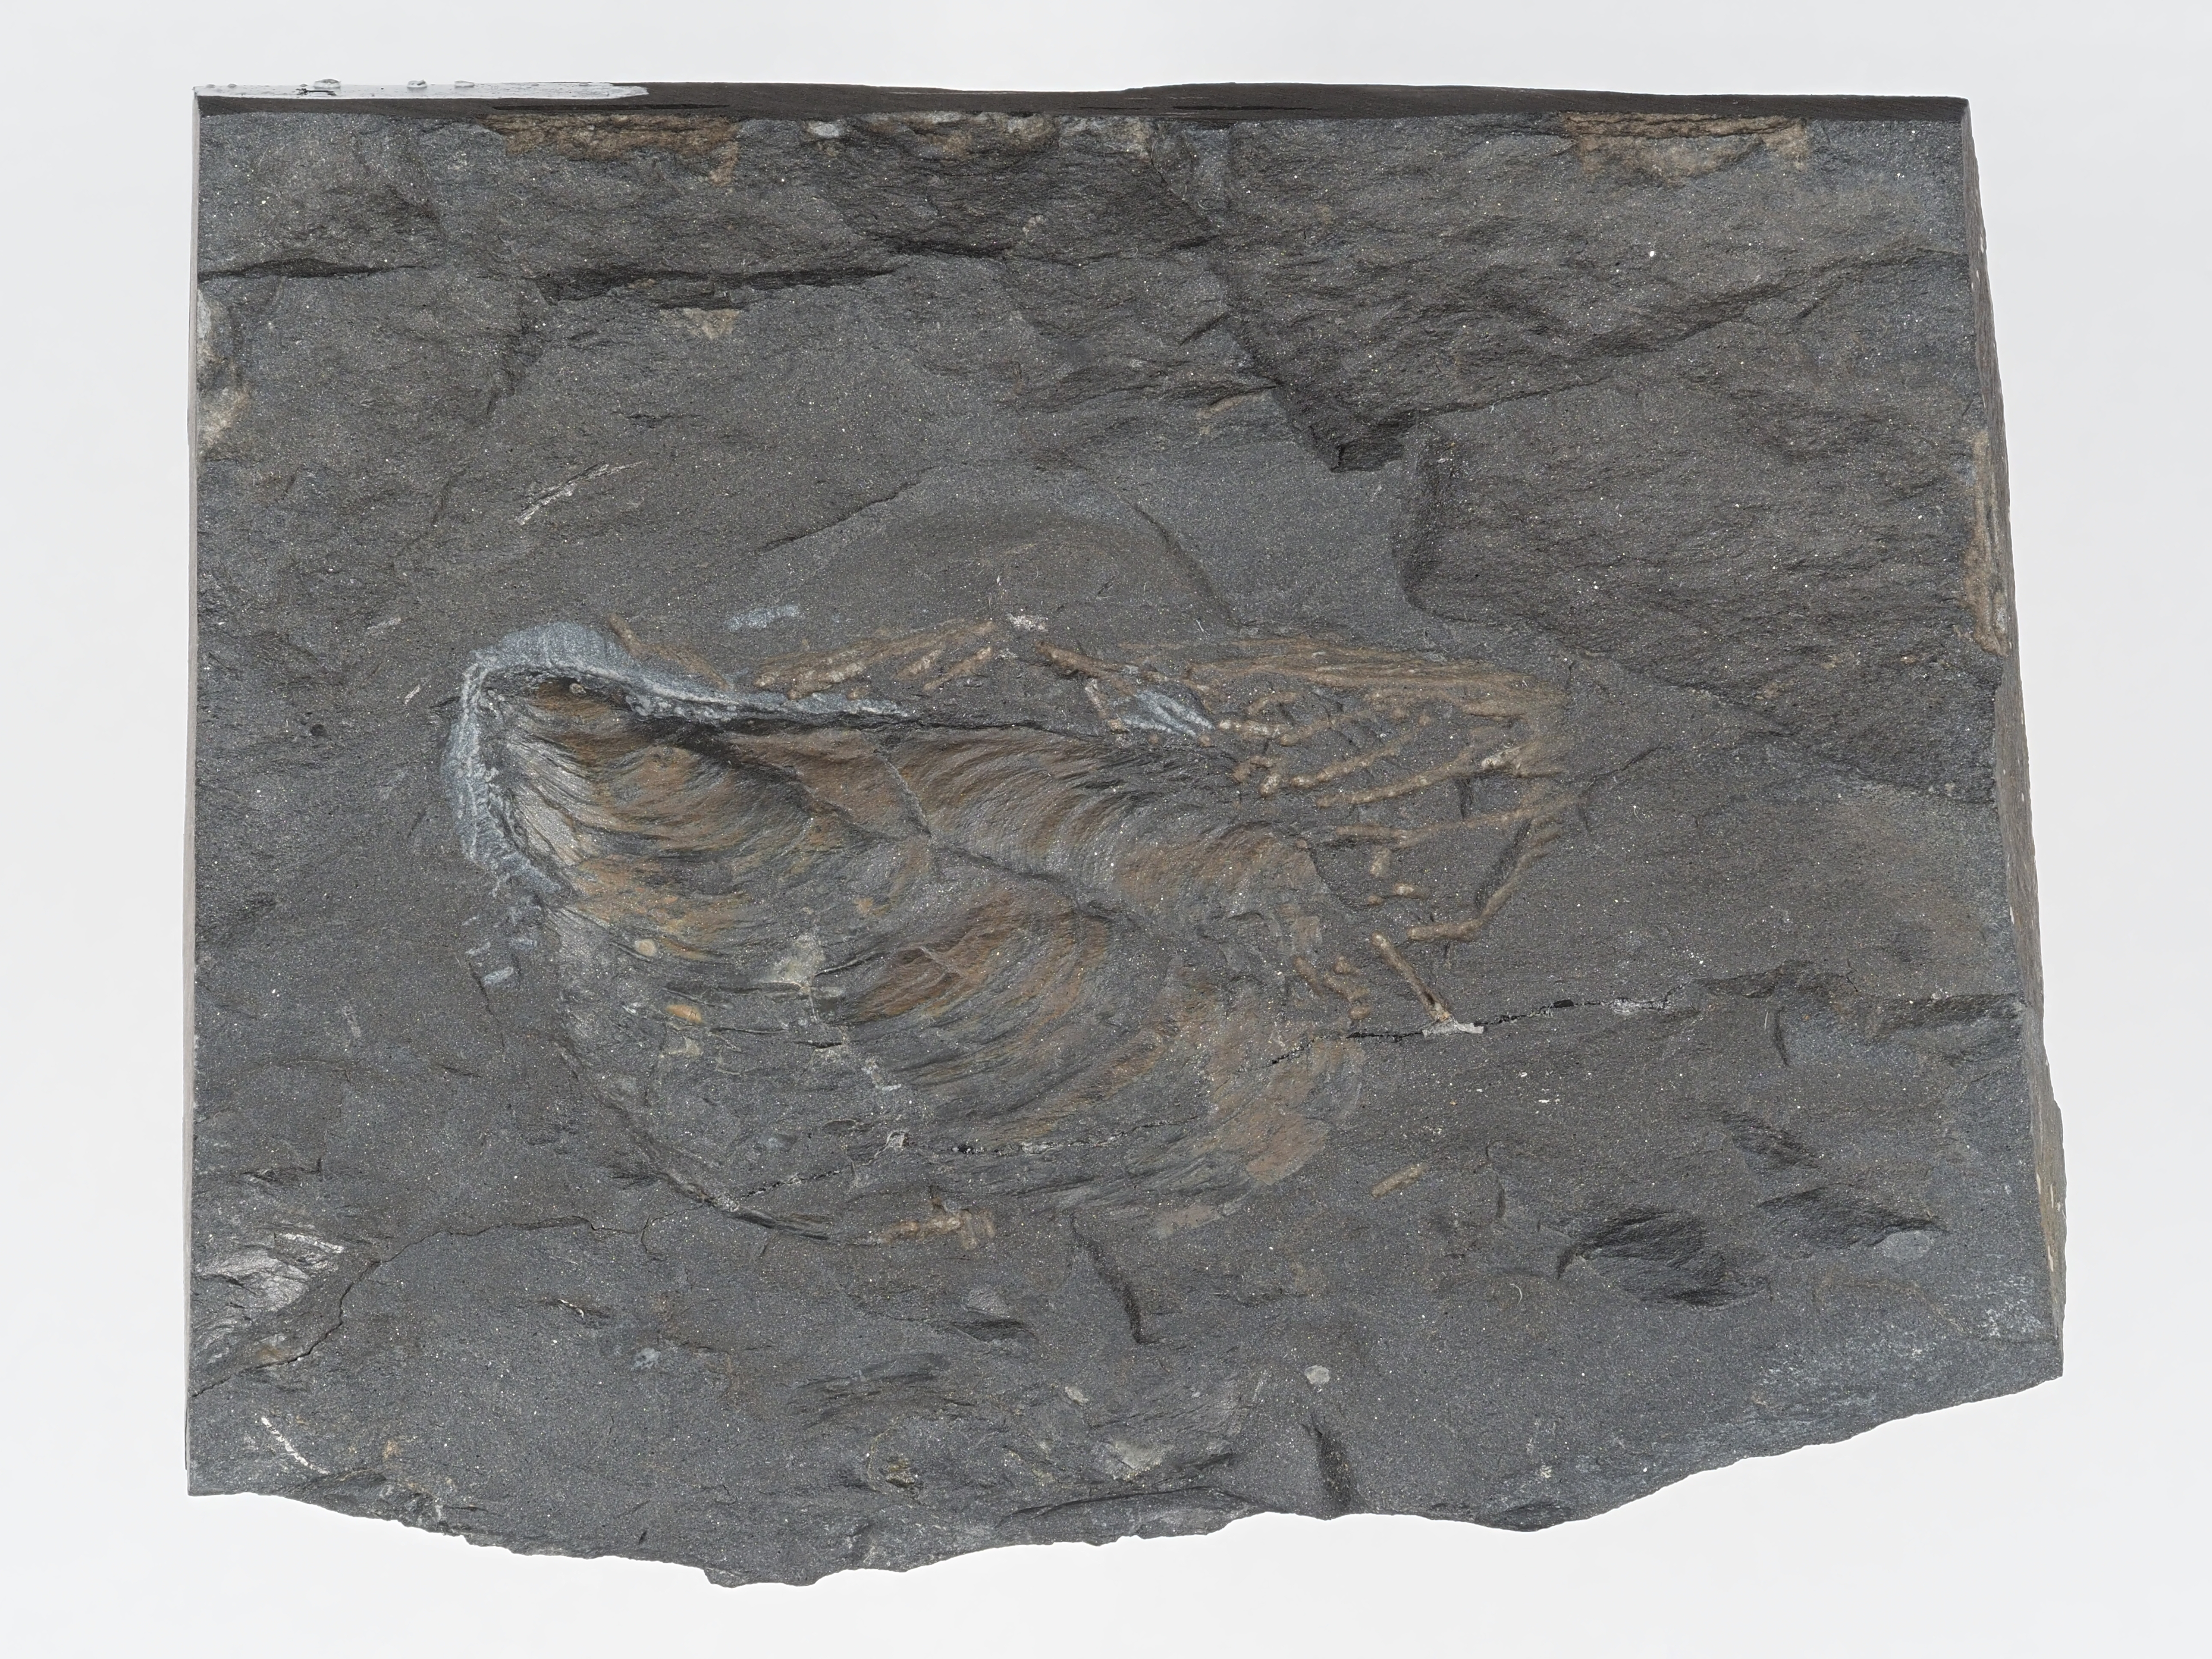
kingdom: Animalia
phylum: Mollusca
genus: Klinoptera
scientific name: Klinoptera
